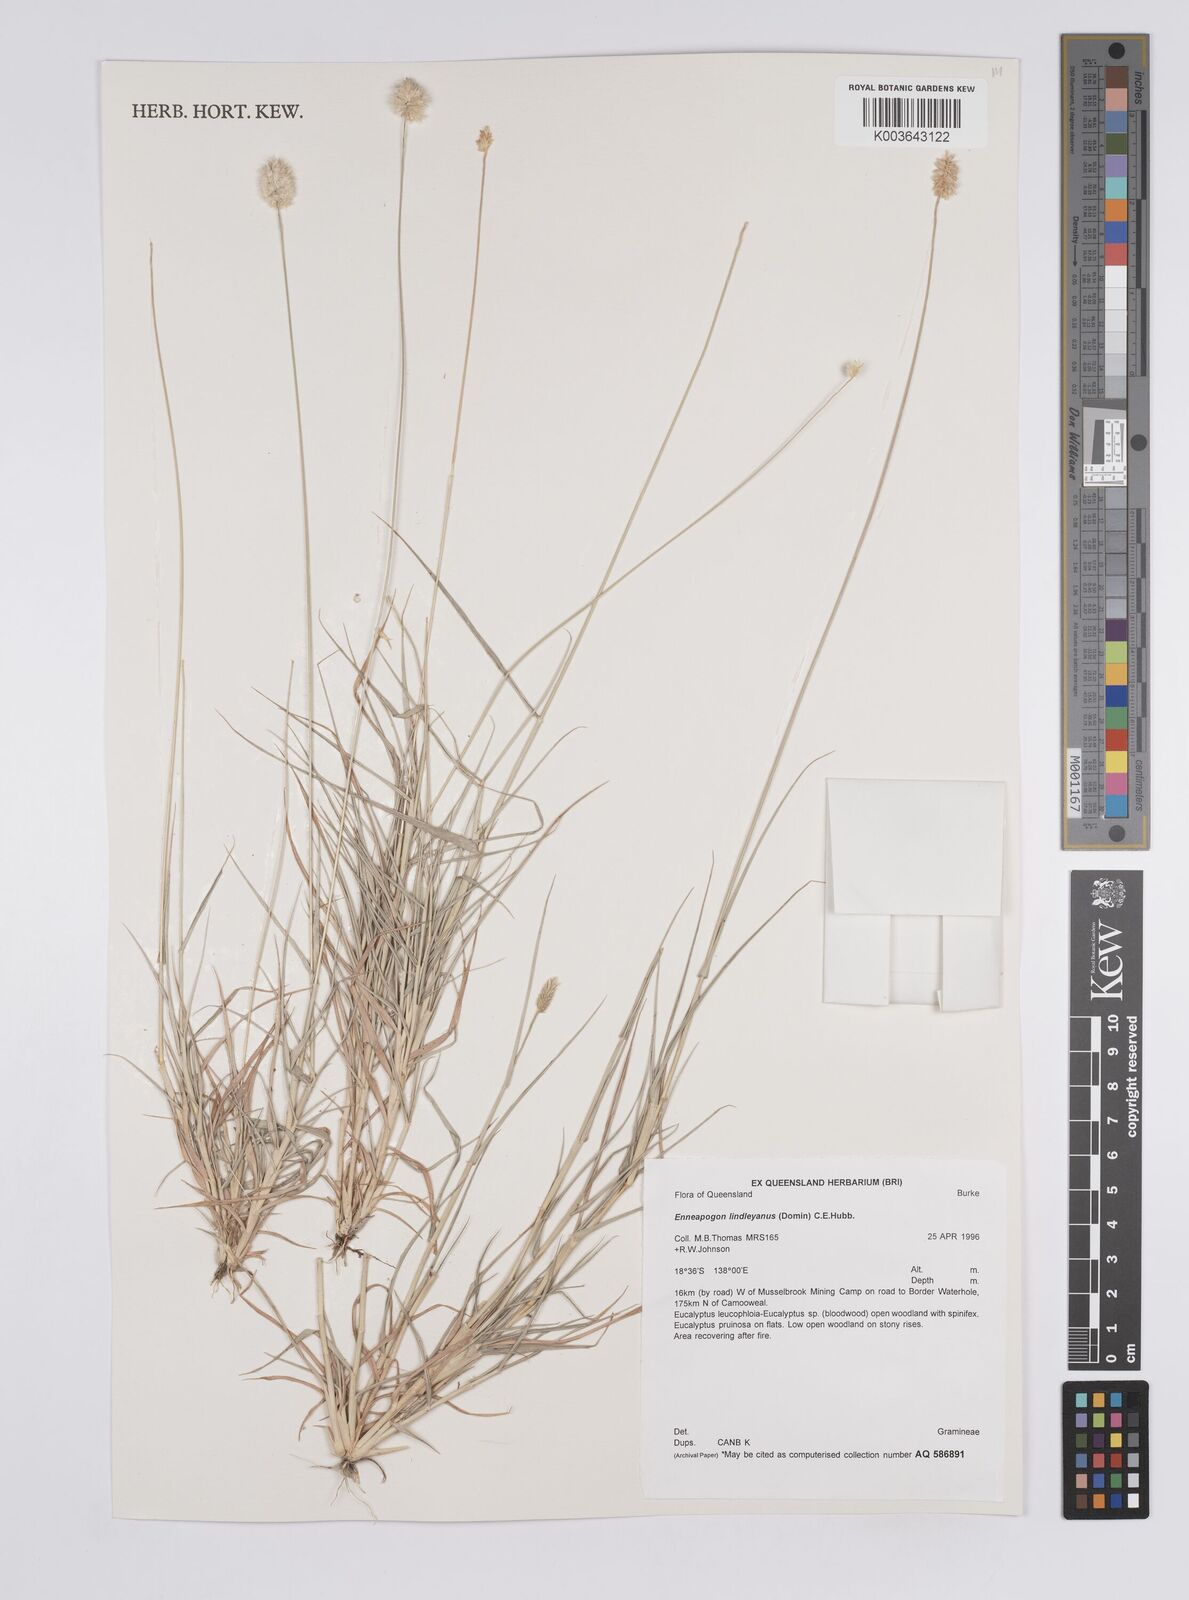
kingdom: Plantae
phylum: Tracheophyta
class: Liliopsida
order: Poales
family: Poaceae
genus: Enneapogon
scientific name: Enneapogon lindleyanus
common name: Conetop nineawn
